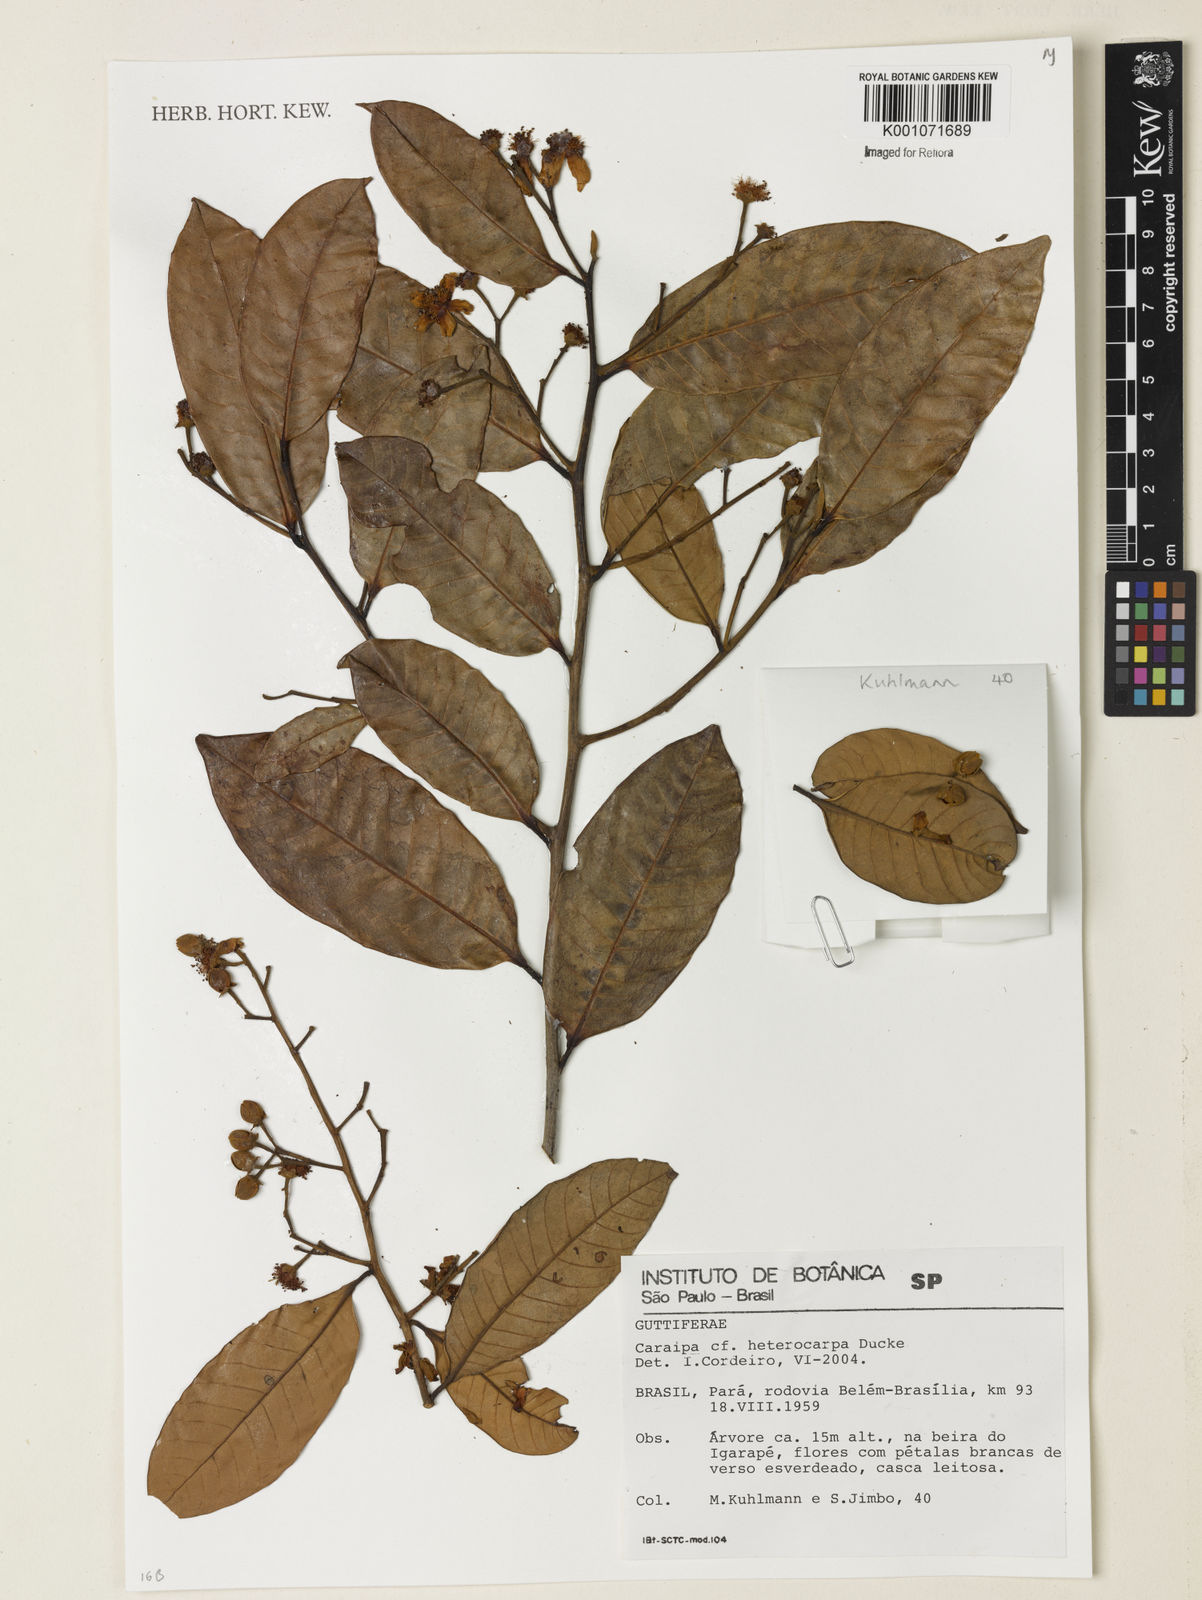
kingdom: Plantae
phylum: Tracheophyta
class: Magnoliopsida
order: Malpighiales
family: Calophyllaceae
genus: Caraipa
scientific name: Caraipa heterocarpa
